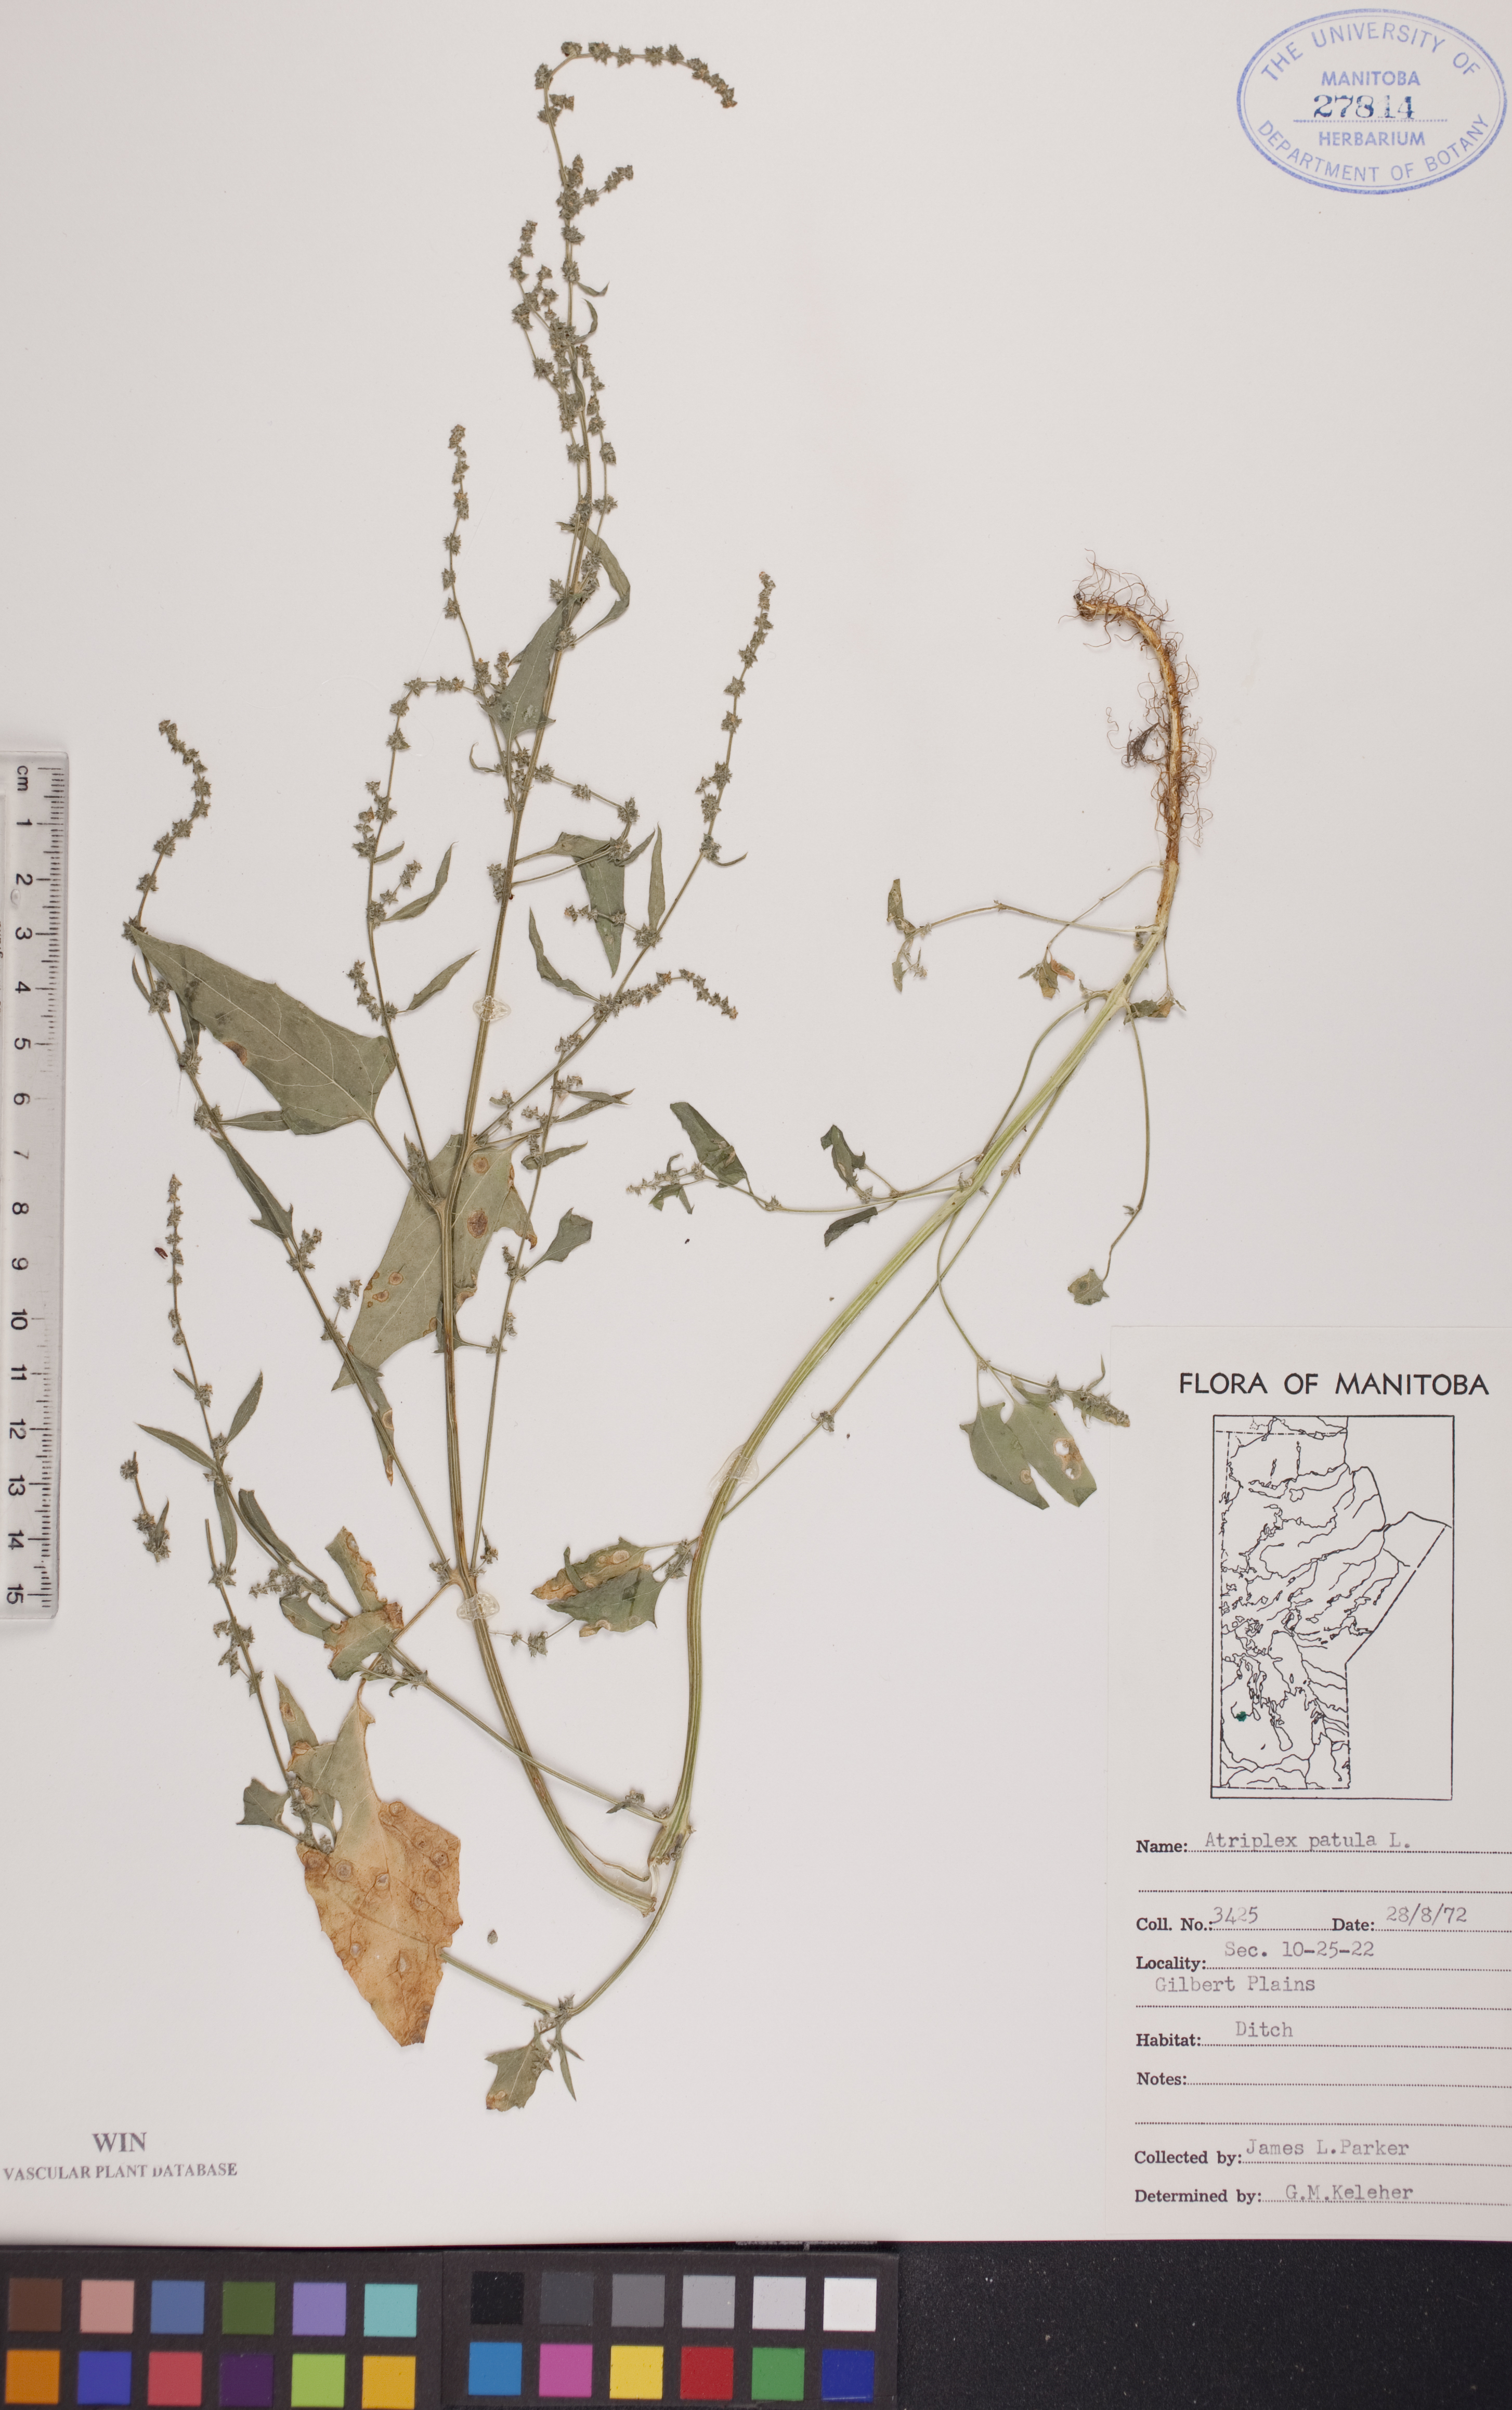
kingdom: Plantae
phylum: Tracheophyta
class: Magnoliopsida
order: Caryophyllales
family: Amaranthaceae
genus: Atriplex
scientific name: Atriplex patula
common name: Common orache
